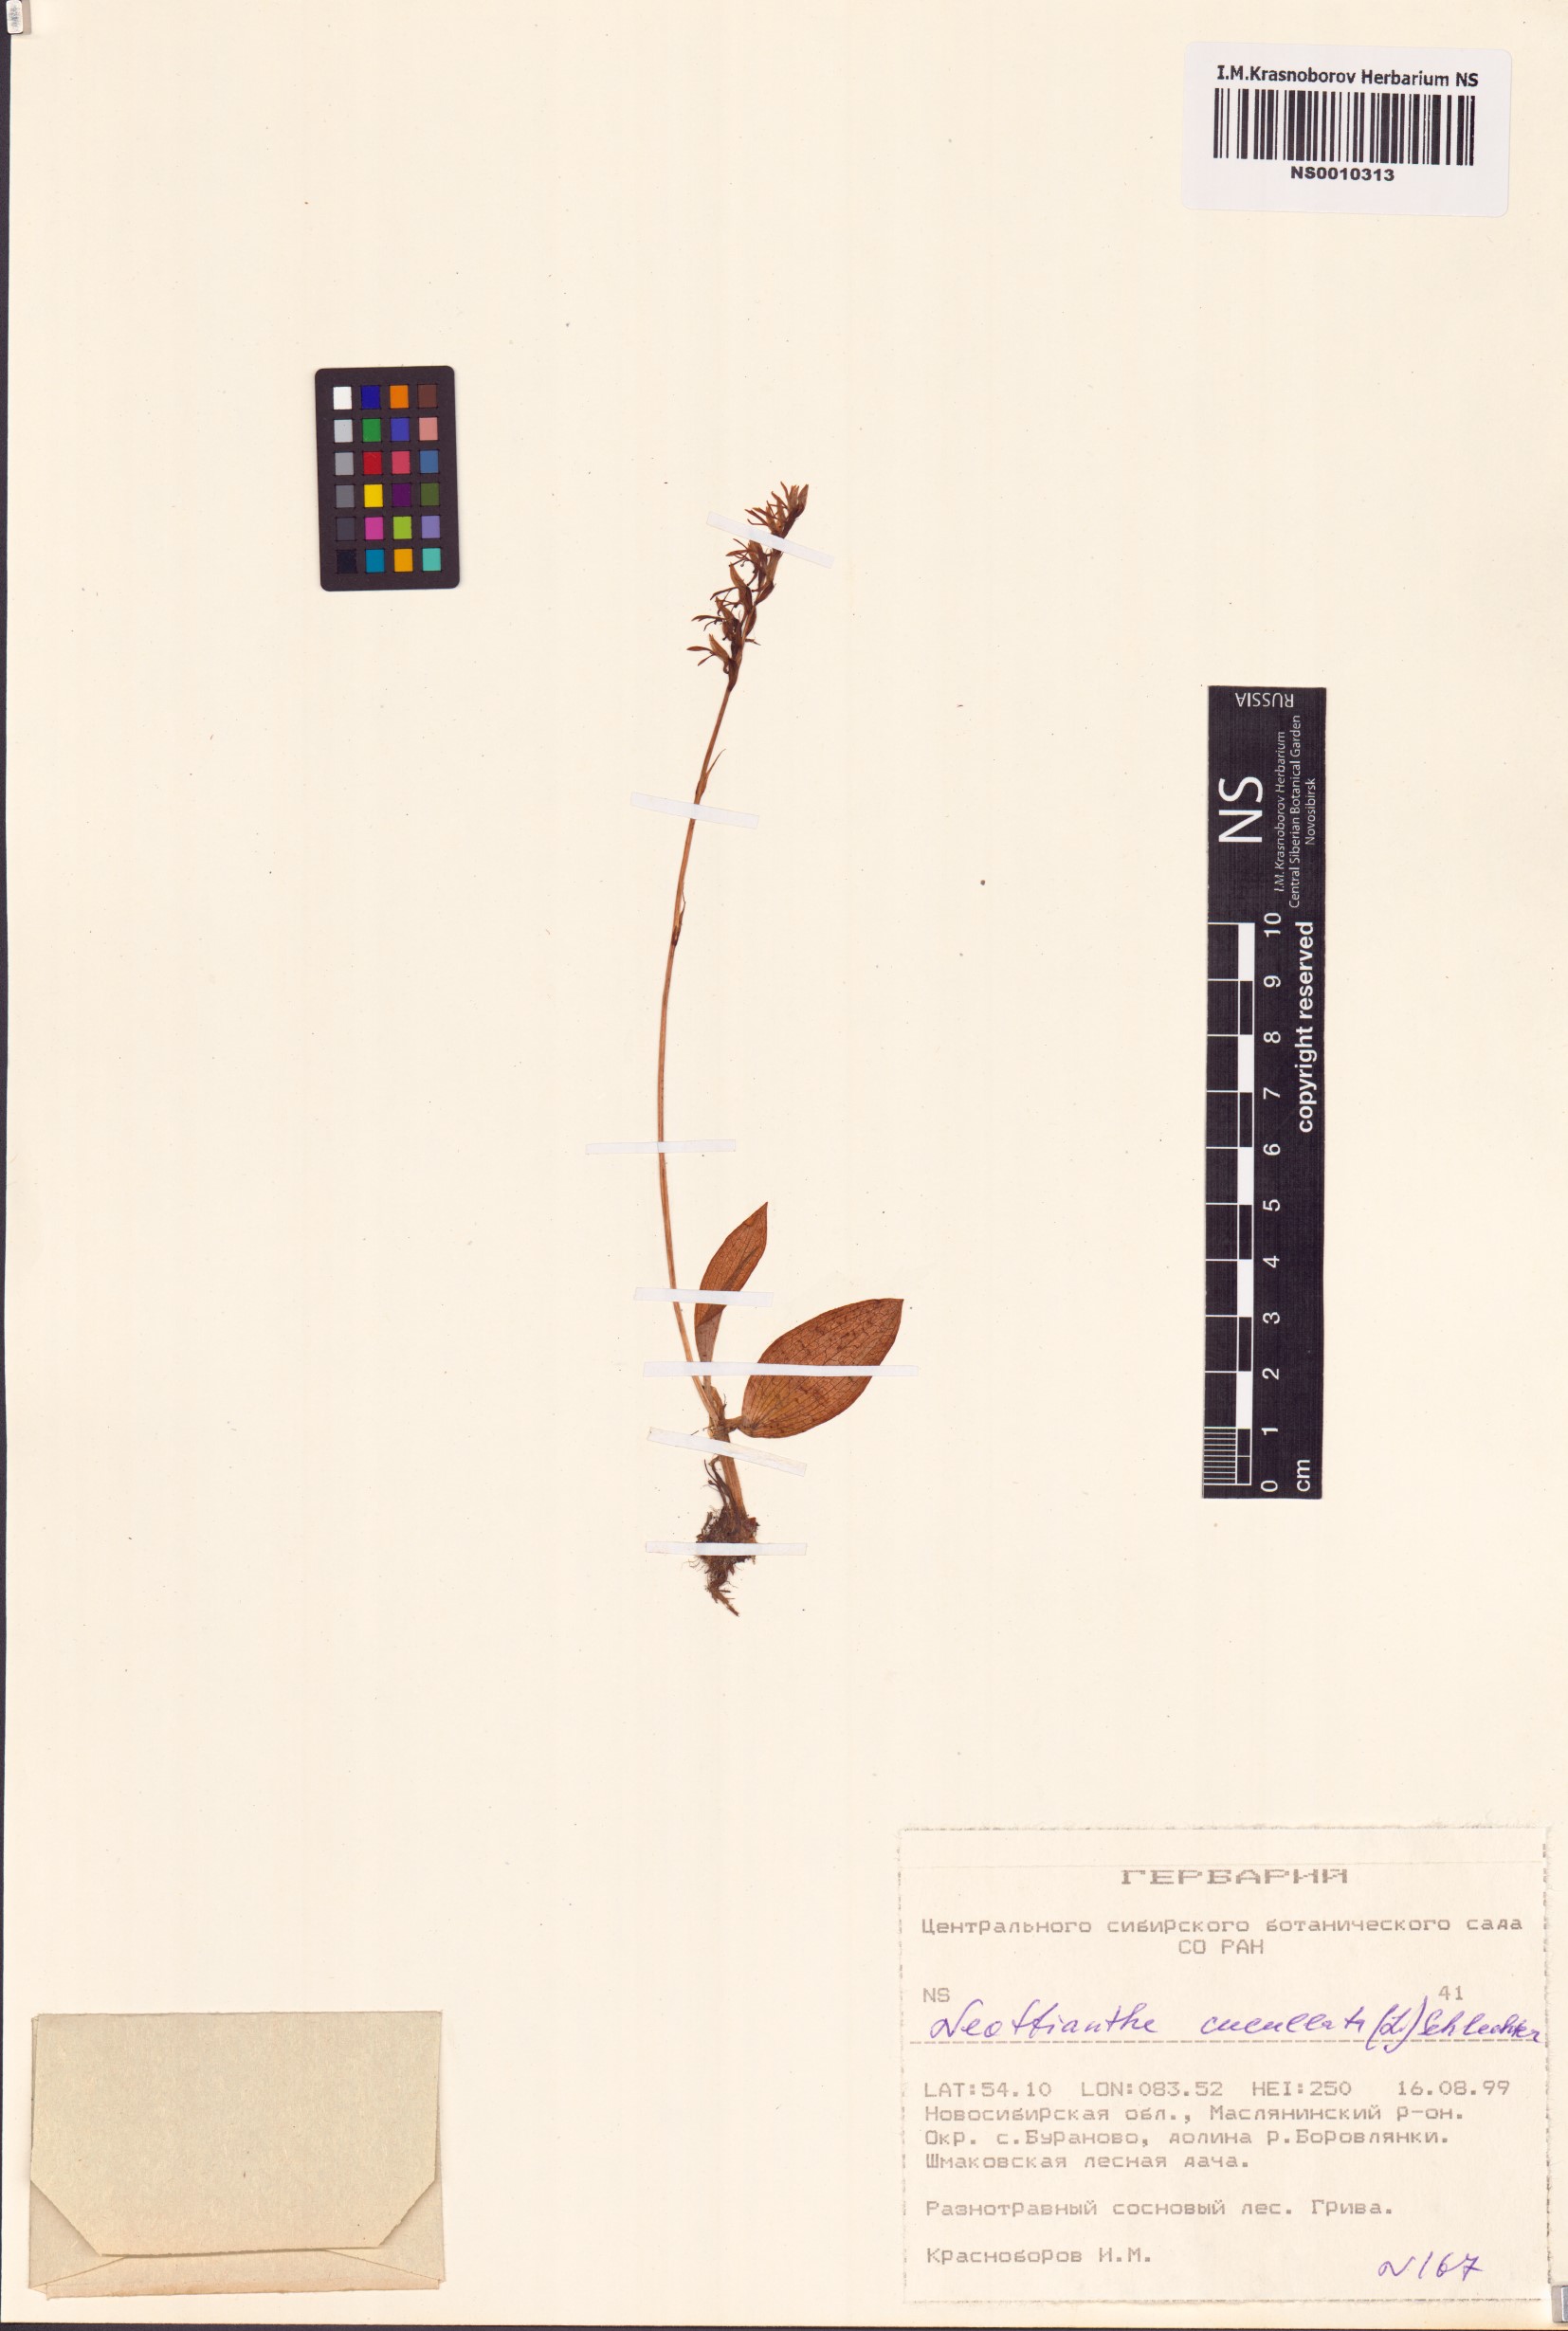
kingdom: Plantae
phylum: Tracheophyta
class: Liliopsida
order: Asparagales
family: Orchidaceae
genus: Hemipilia
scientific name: Hemipilia cucullata
